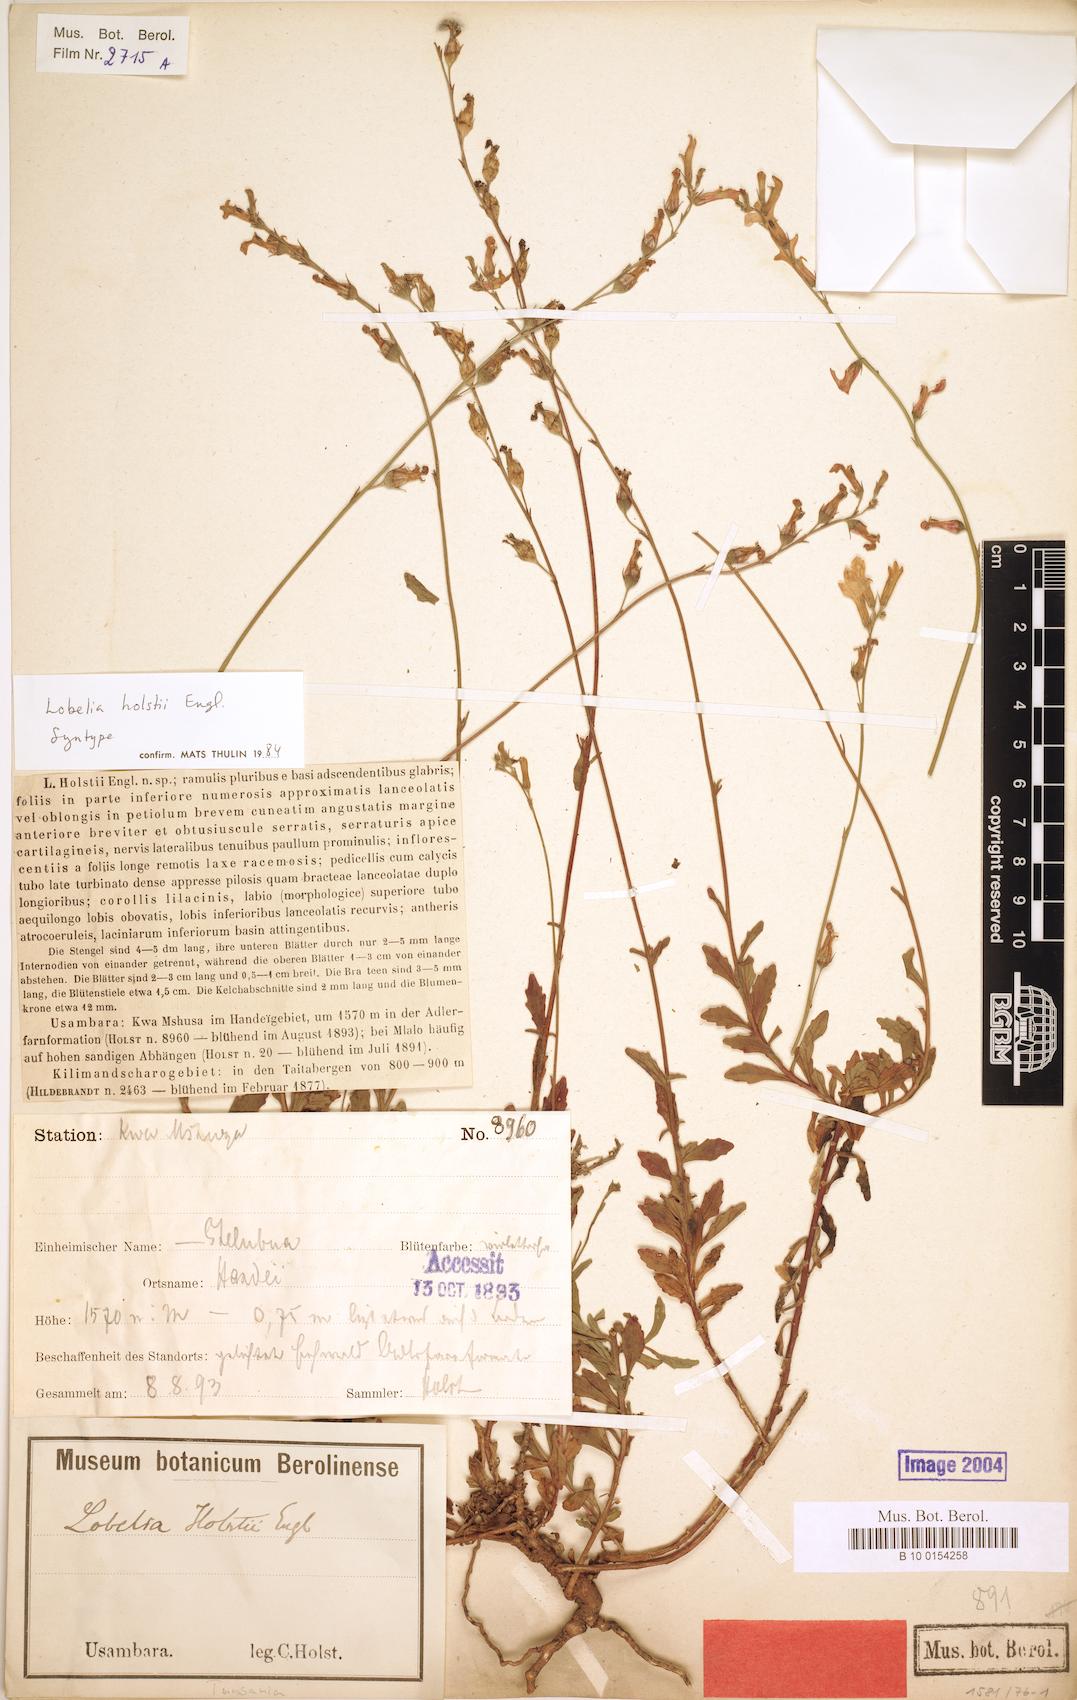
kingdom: Plantae
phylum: Tracheophyta
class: Magnoliopsida
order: Asterales
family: Campanulaceae
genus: Lobelia
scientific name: Lobelia holstii
